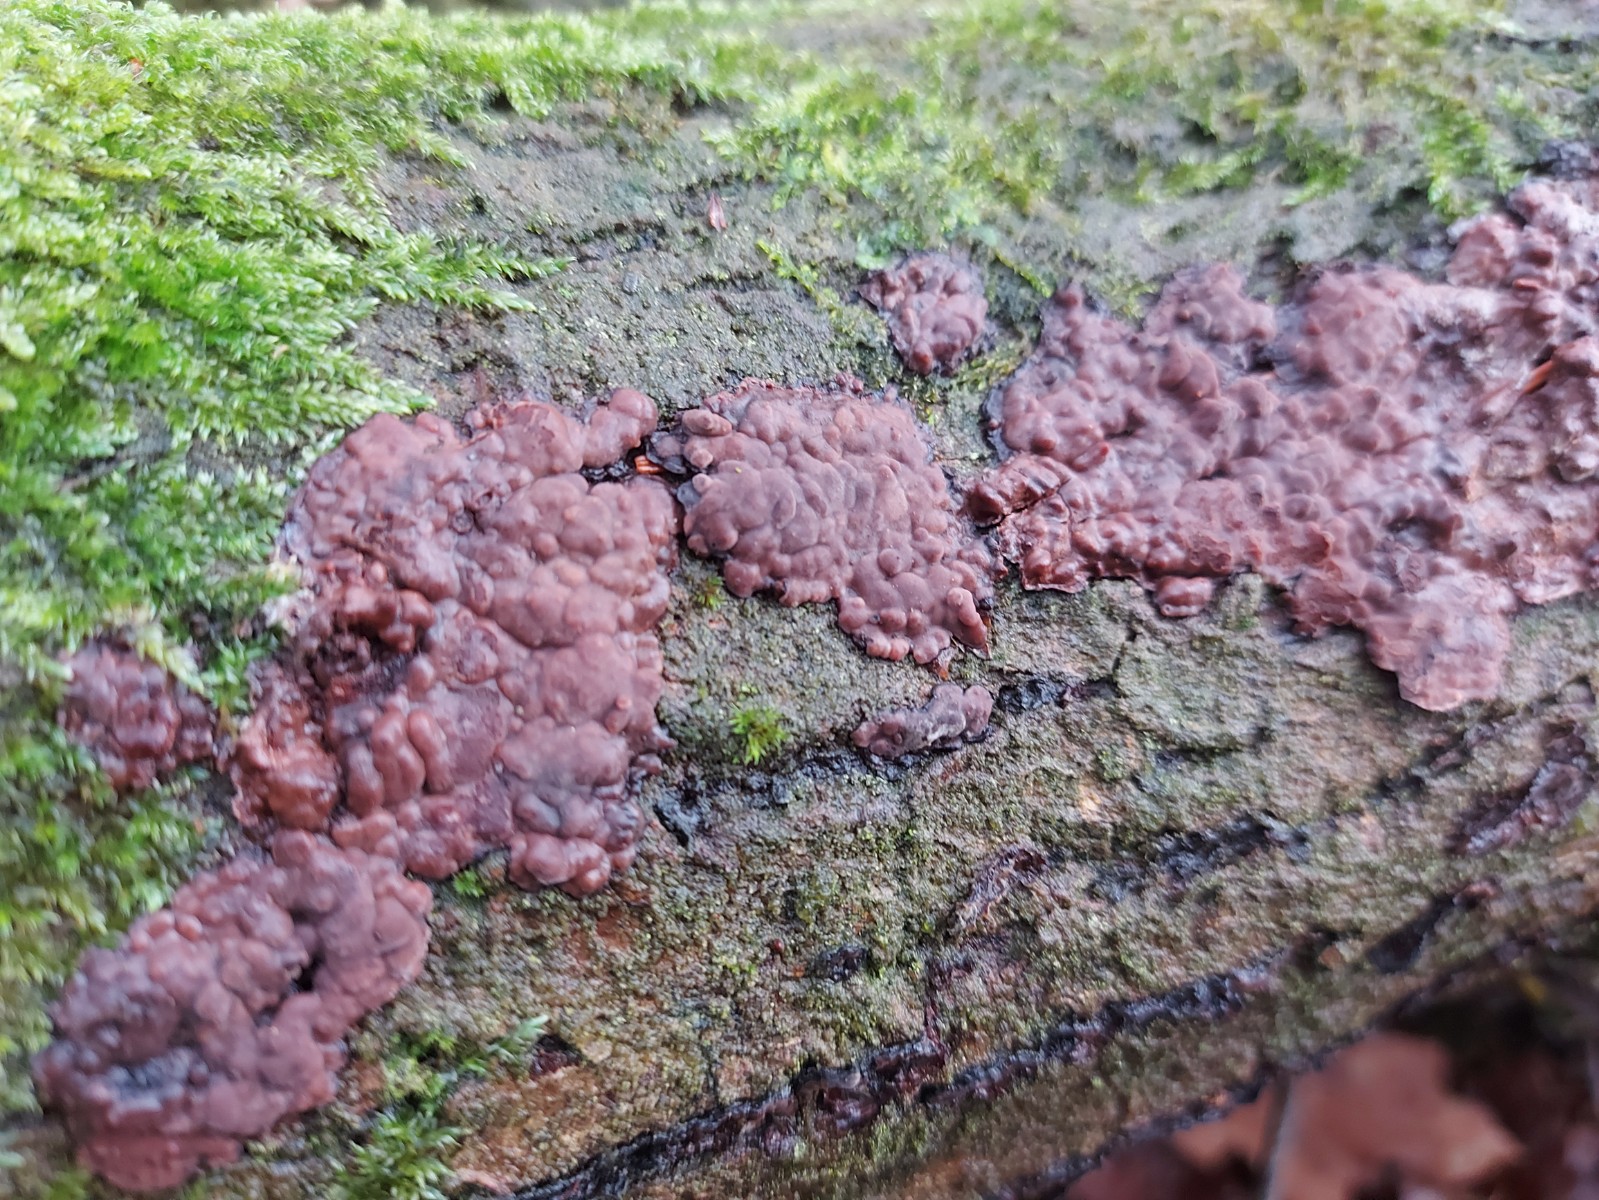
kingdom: Fungi
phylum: Basidiomycota
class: Agaricomycetes
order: Russulales
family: Peniophoraceae
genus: Peniophora
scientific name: Peniophora quercina
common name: ege-voksskind
